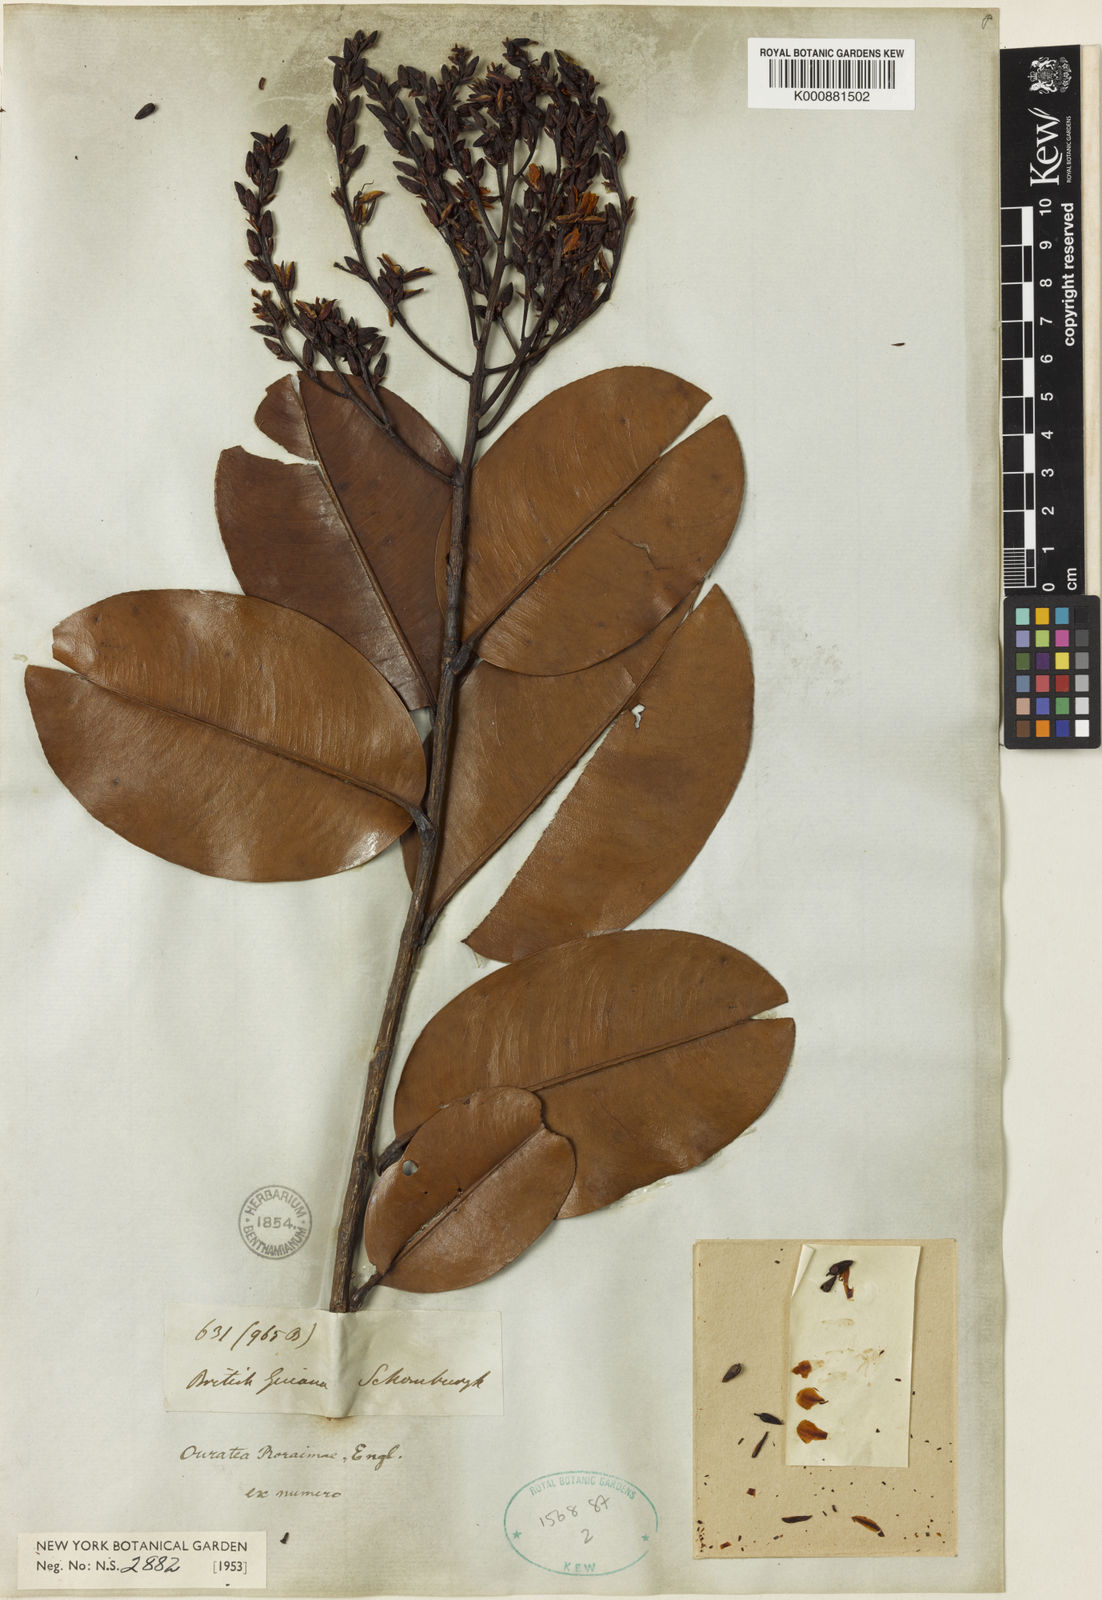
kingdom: Plantae
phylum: Tracheophyta
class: Magnoliopsida
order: Malpighiales
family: Ochnaceae
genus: Ouratea
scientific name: Ouratea roraimae
